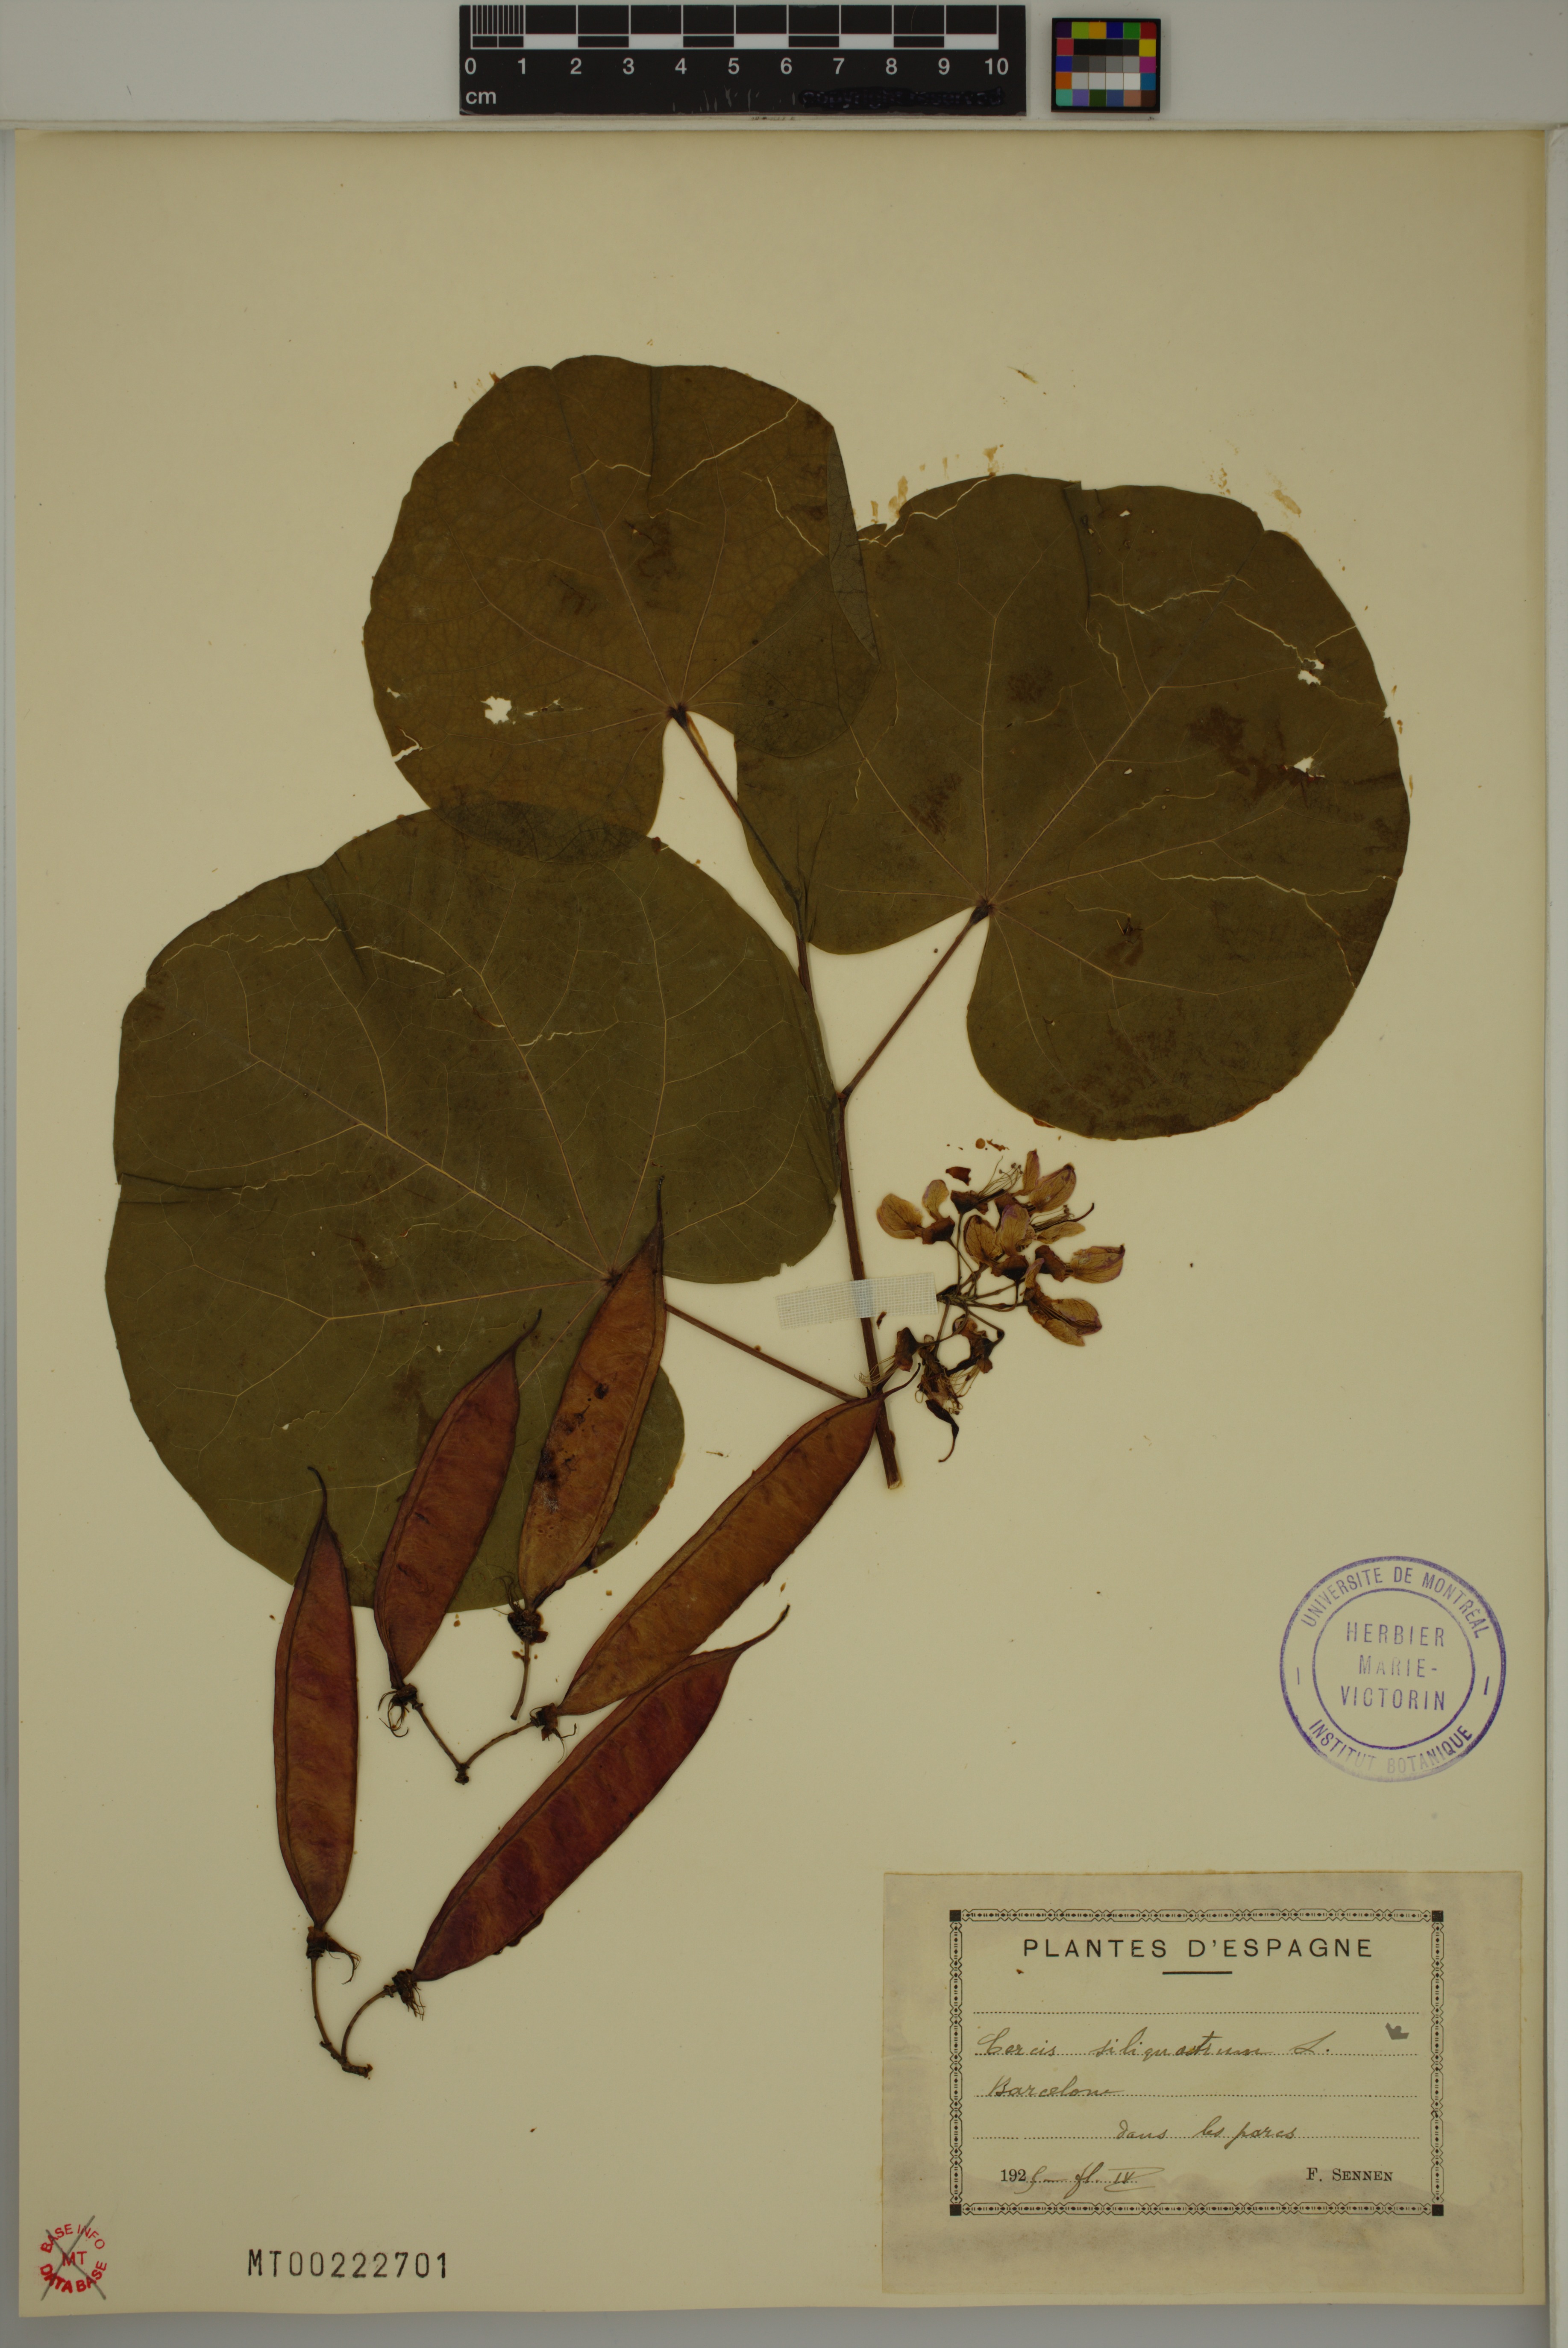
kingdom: Plantae
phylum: Tracheophyta
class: Magnoliopsida
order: Fabales
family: Fabaceae
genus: Cercis
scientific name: Cercis siliquastrum
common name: Judas tree
